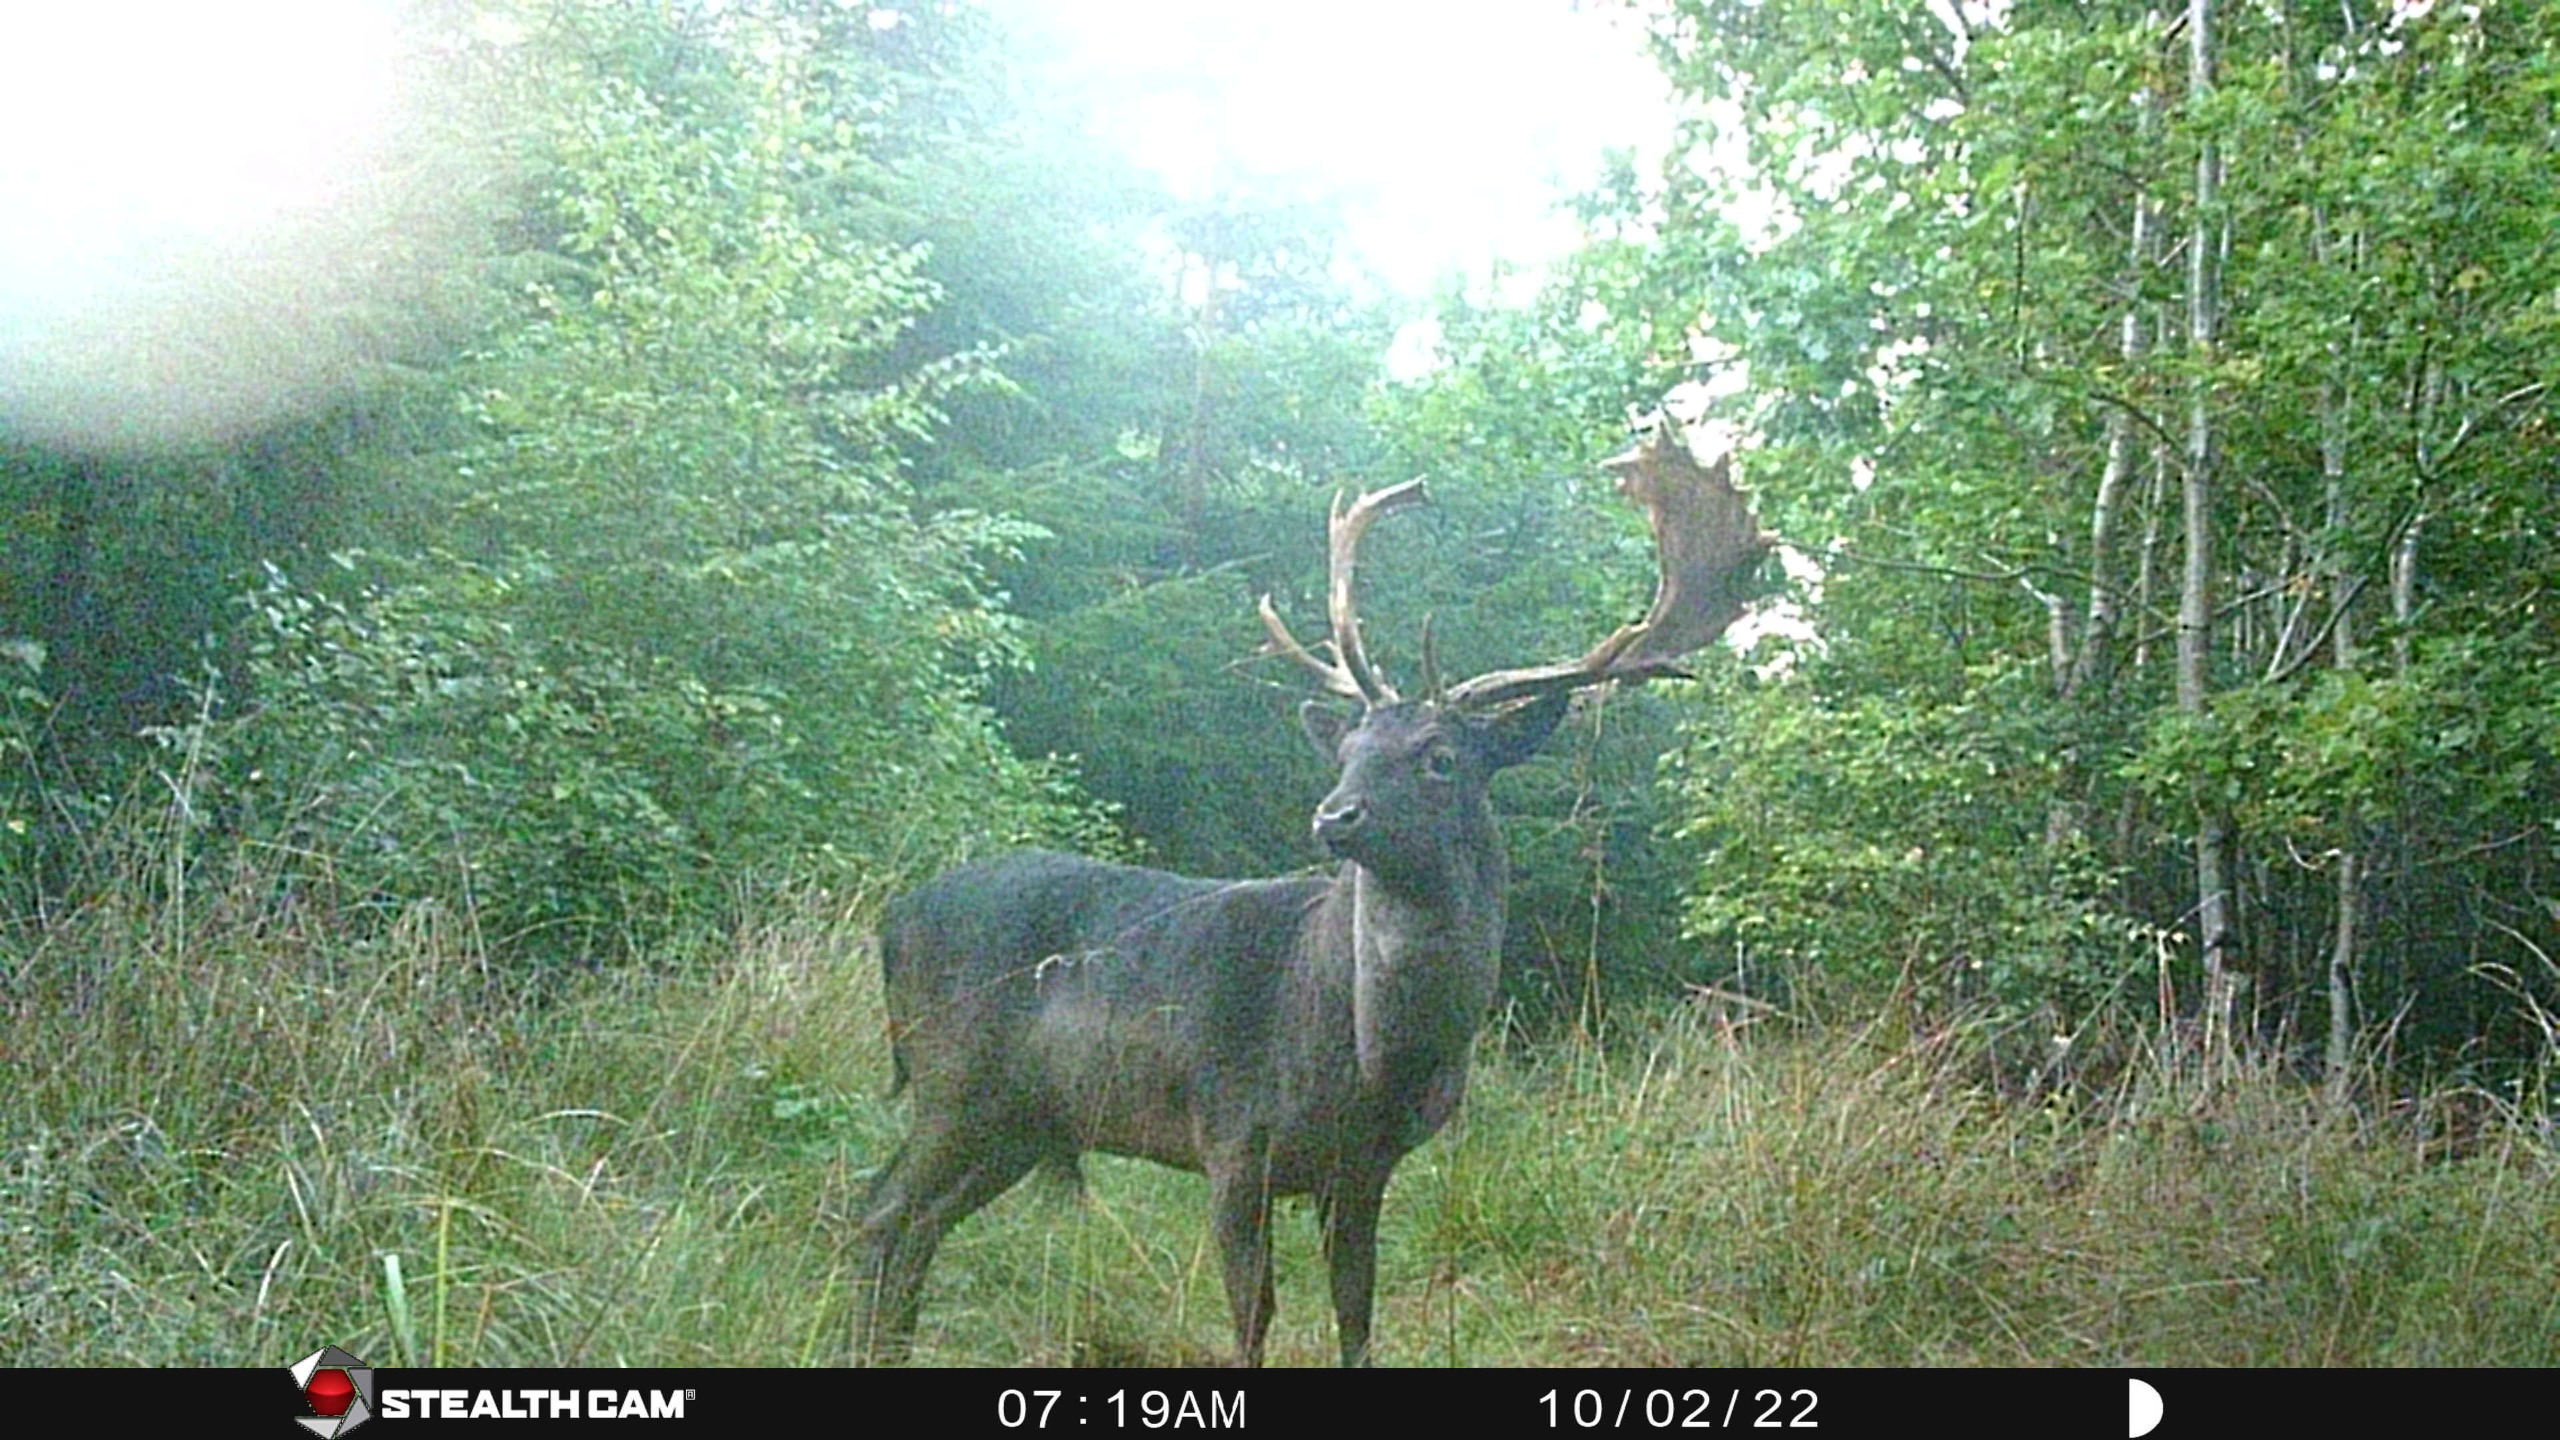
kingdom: Animalia
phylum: Chordata
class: Mammalia
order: Artiodactyla
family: Cervidae
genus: Dama
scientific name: Dama dama
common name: Dådyr
